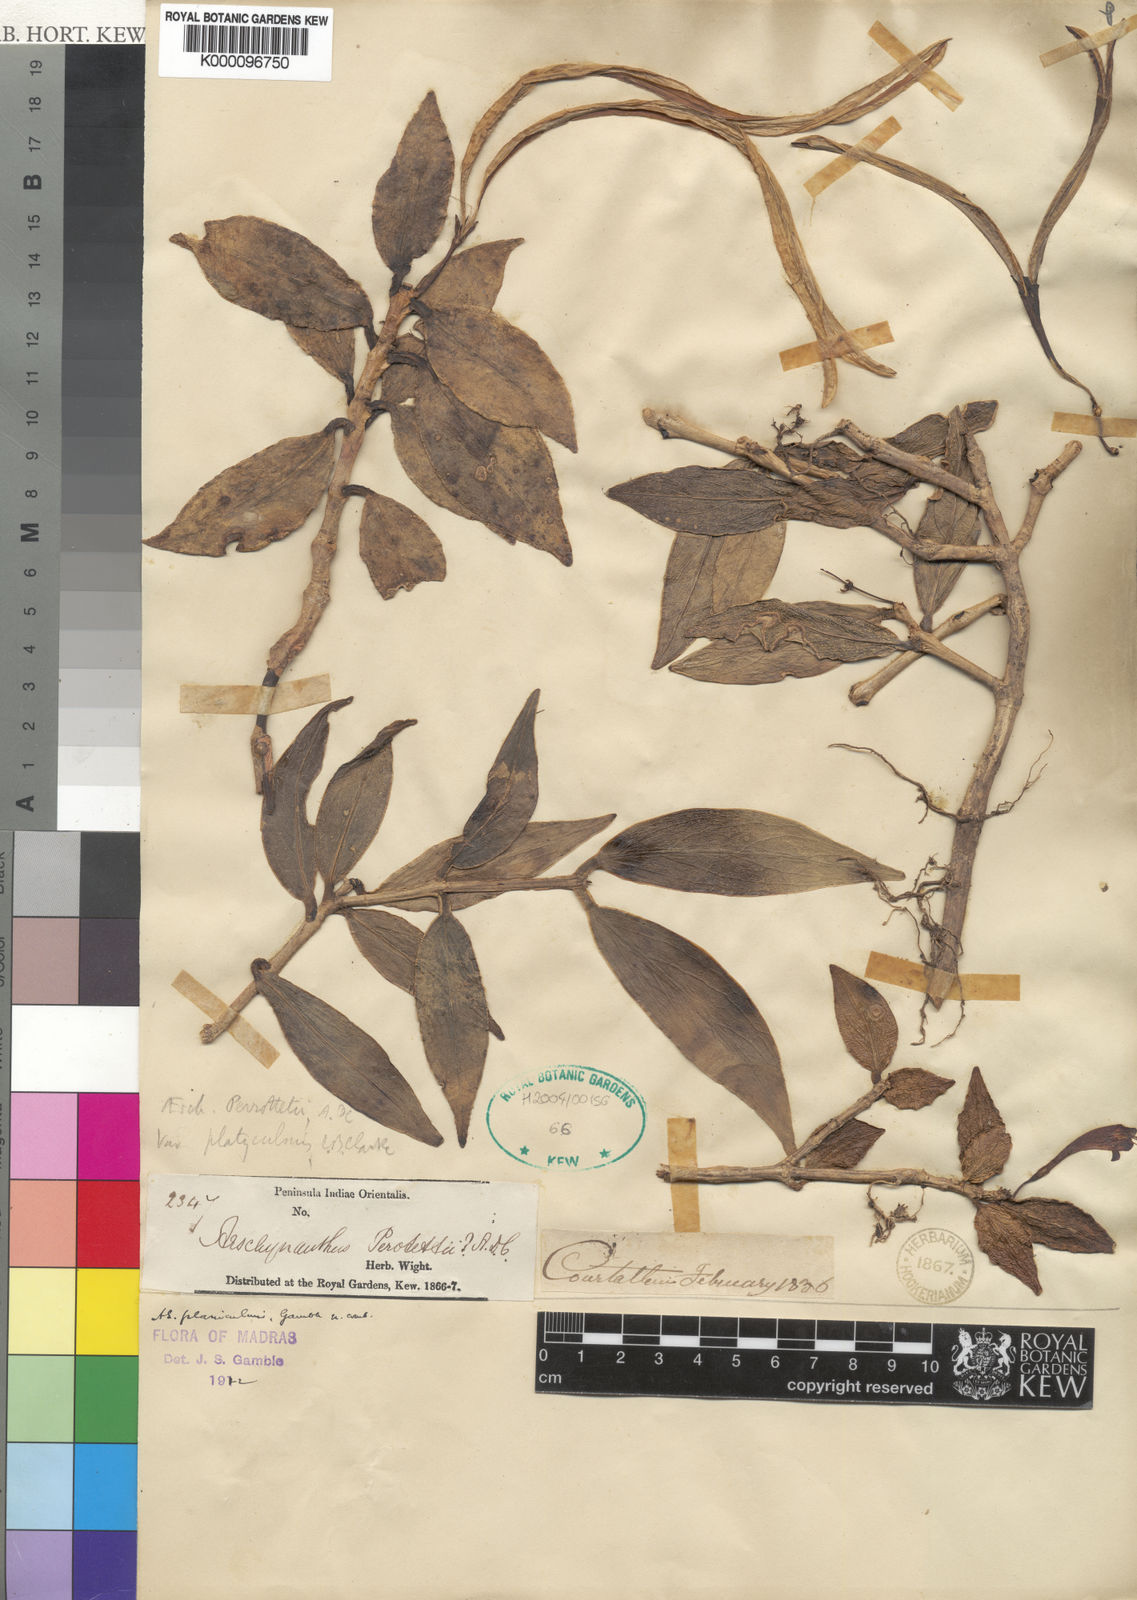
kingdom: Plantae
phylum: Tracheophyta
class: Magnoliopsida
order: Lamiales
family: Gesneriaceae
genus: Aeschynanthus
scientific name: Aeschynanthus perrottetii
